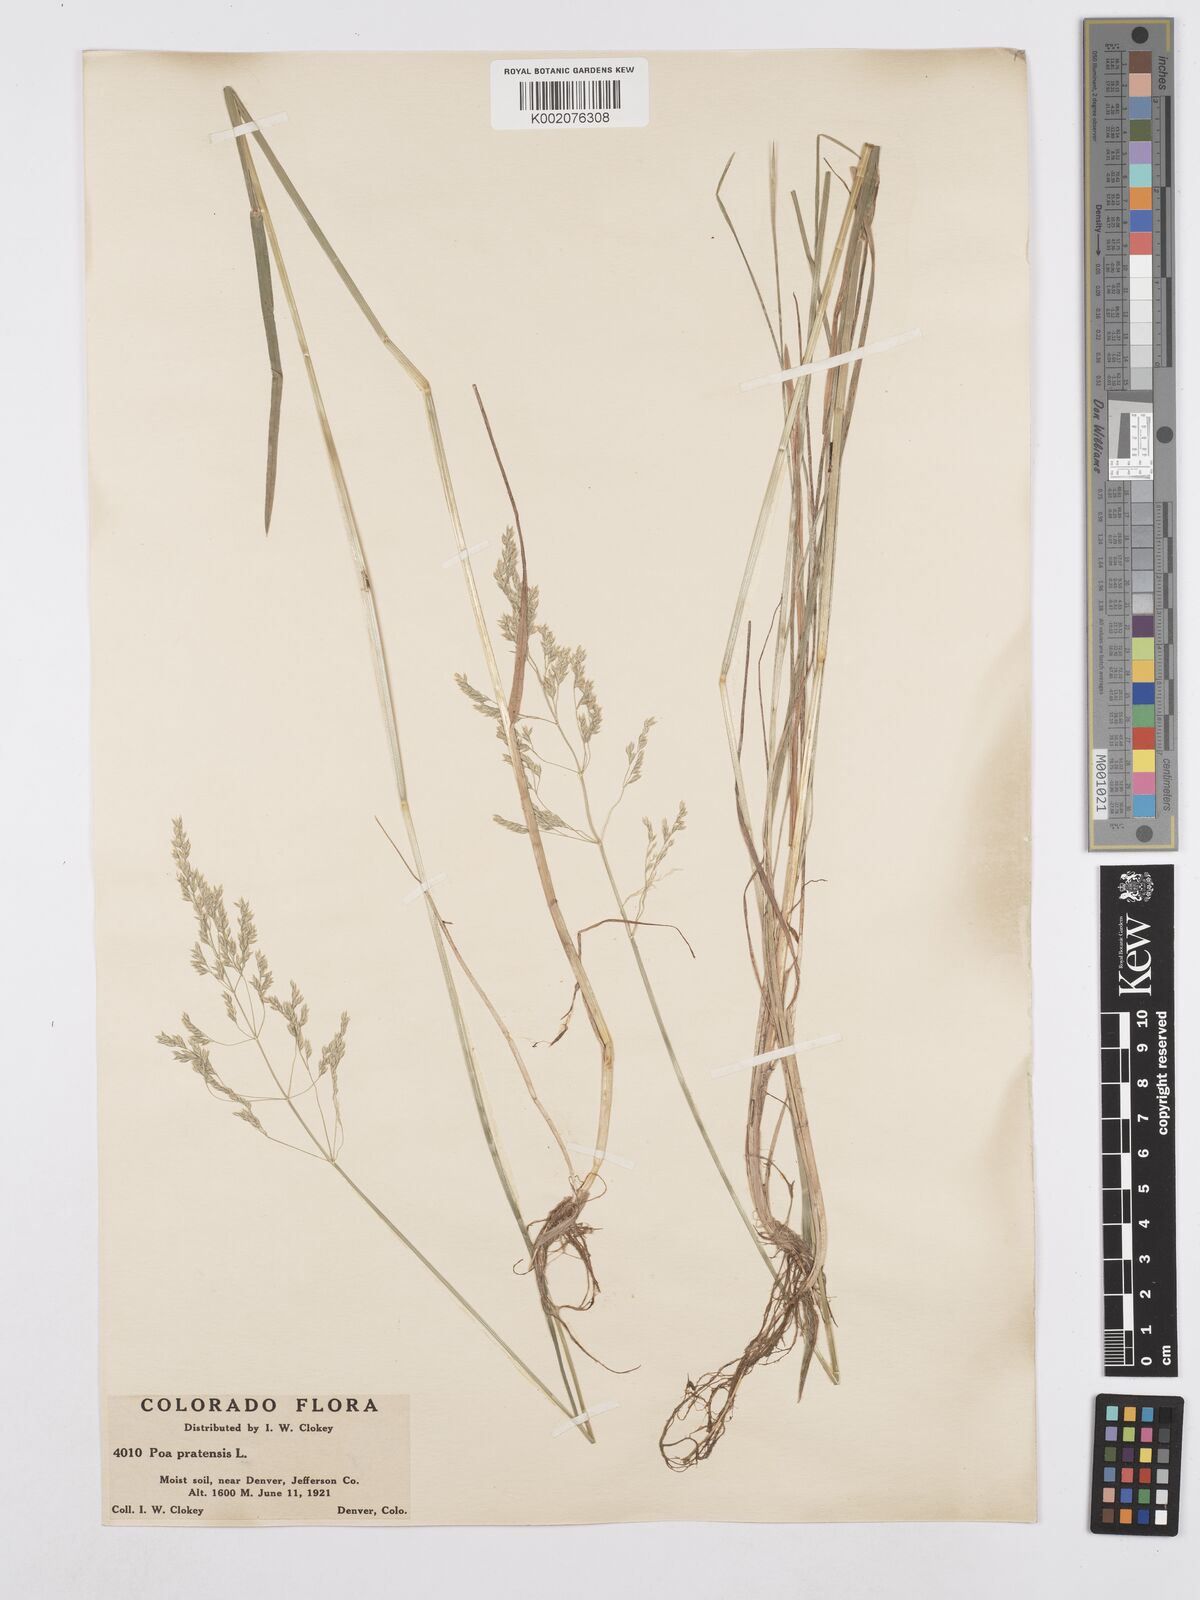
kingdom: Plantae
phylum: Tracheophyta
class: Liliopsida
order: Poales
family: Poaceae
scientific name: Poaceae
